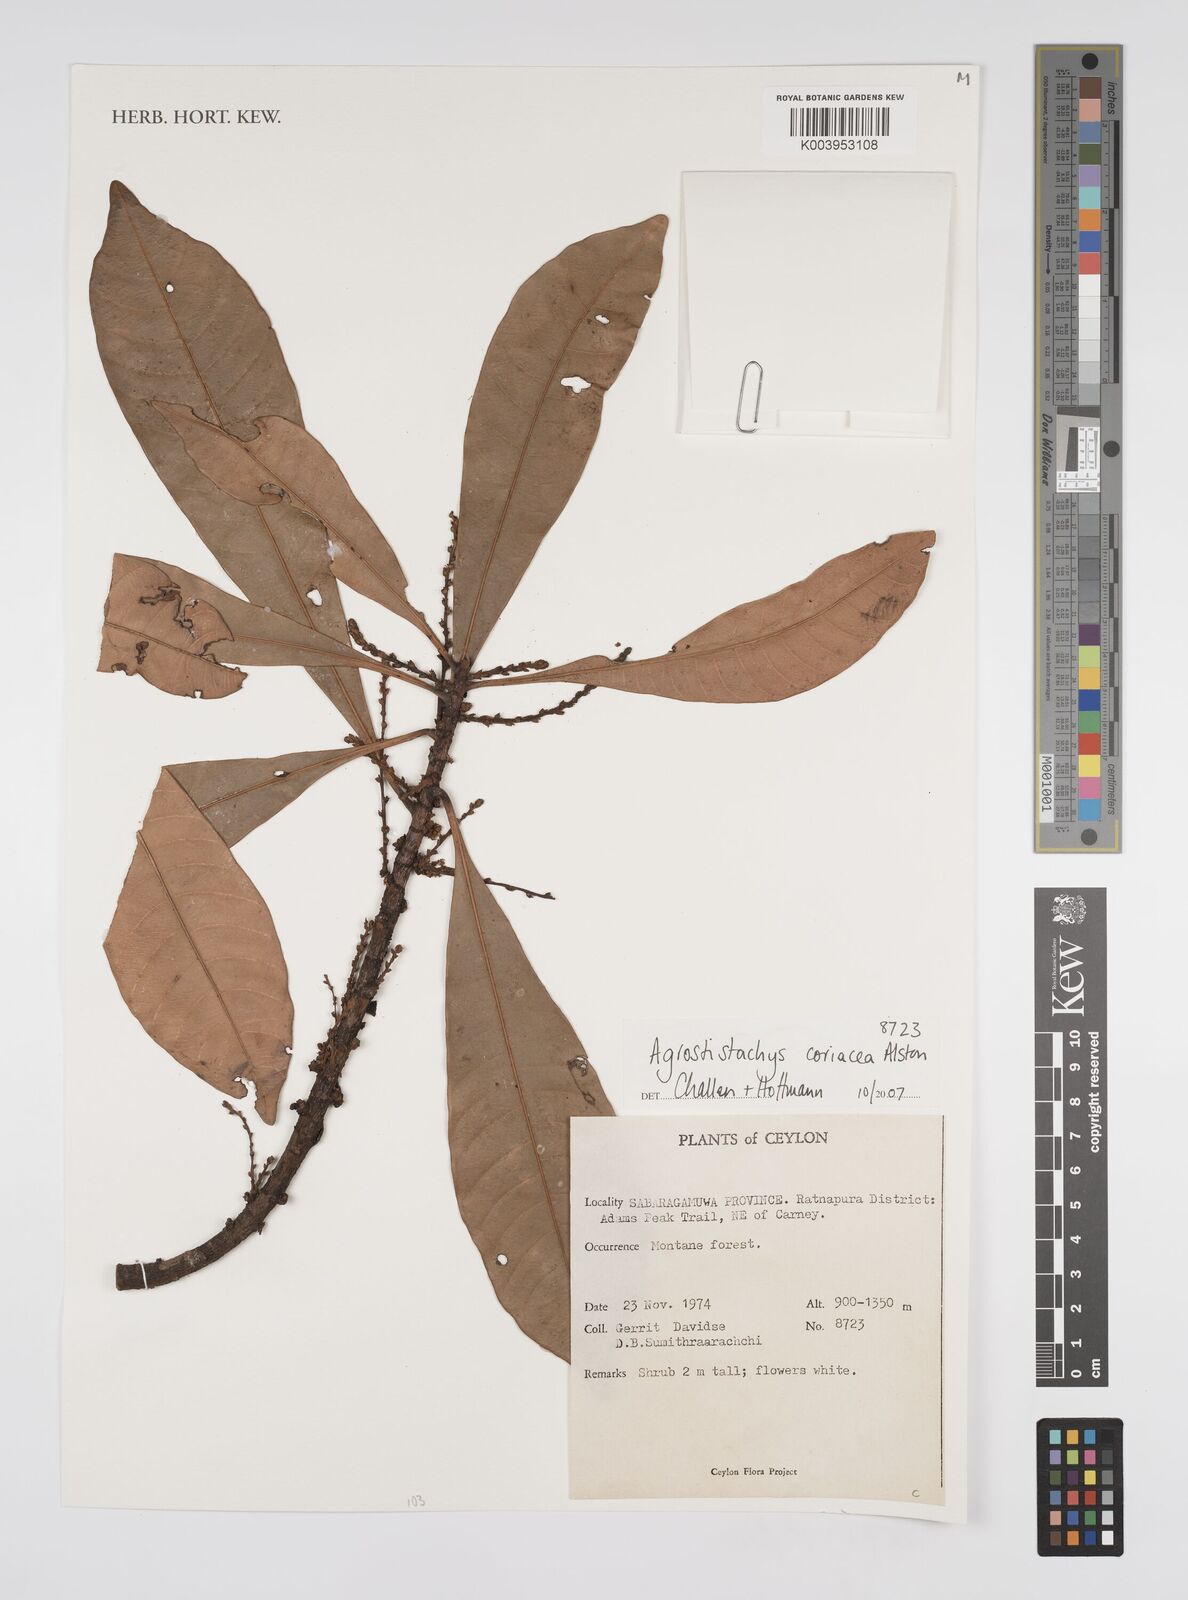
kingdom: Plantae
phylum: Tracheophyta
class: Magnoliopsida
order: Malpighiales
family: Euphorbiaceae
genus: Agrostistachys
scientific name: Agrostistachys borneensis
